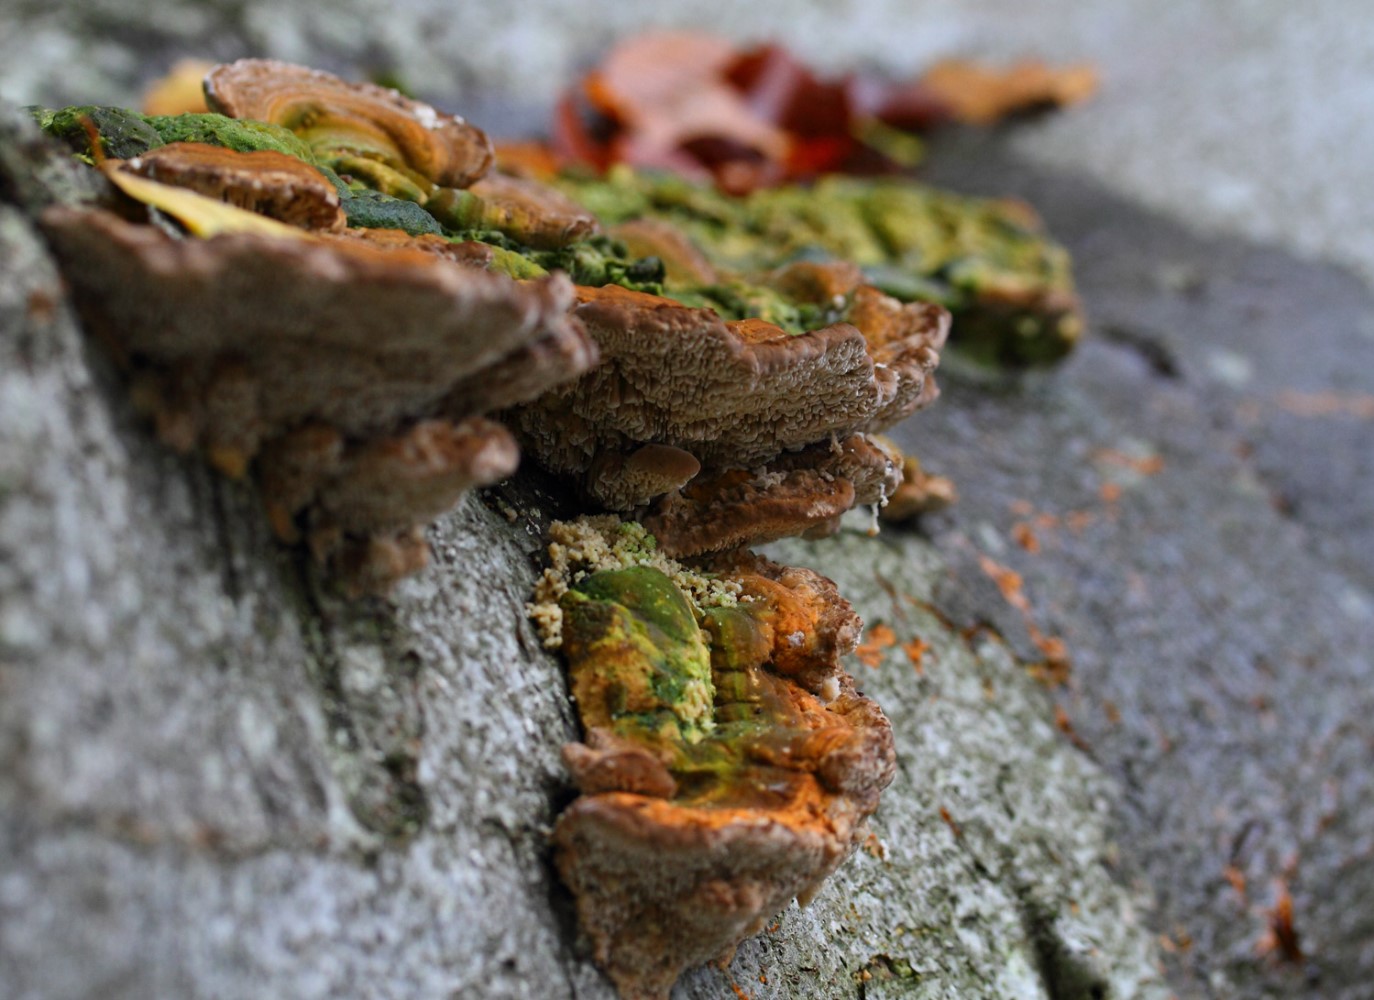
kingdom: Fungi
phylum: Basidiomycota
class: Agaricomycetes
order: Polyporales
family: Polyporaceae
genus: Lenzites
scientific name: Lenzites betulinus
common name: birke-læderporesvamp
